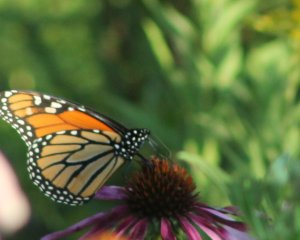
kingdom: Animalia
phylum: Arthropoda
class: Insecta
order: Lepidoptera
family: Nymphalidae
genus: Danaus
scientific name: Danaus plexippus
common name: Monarch
